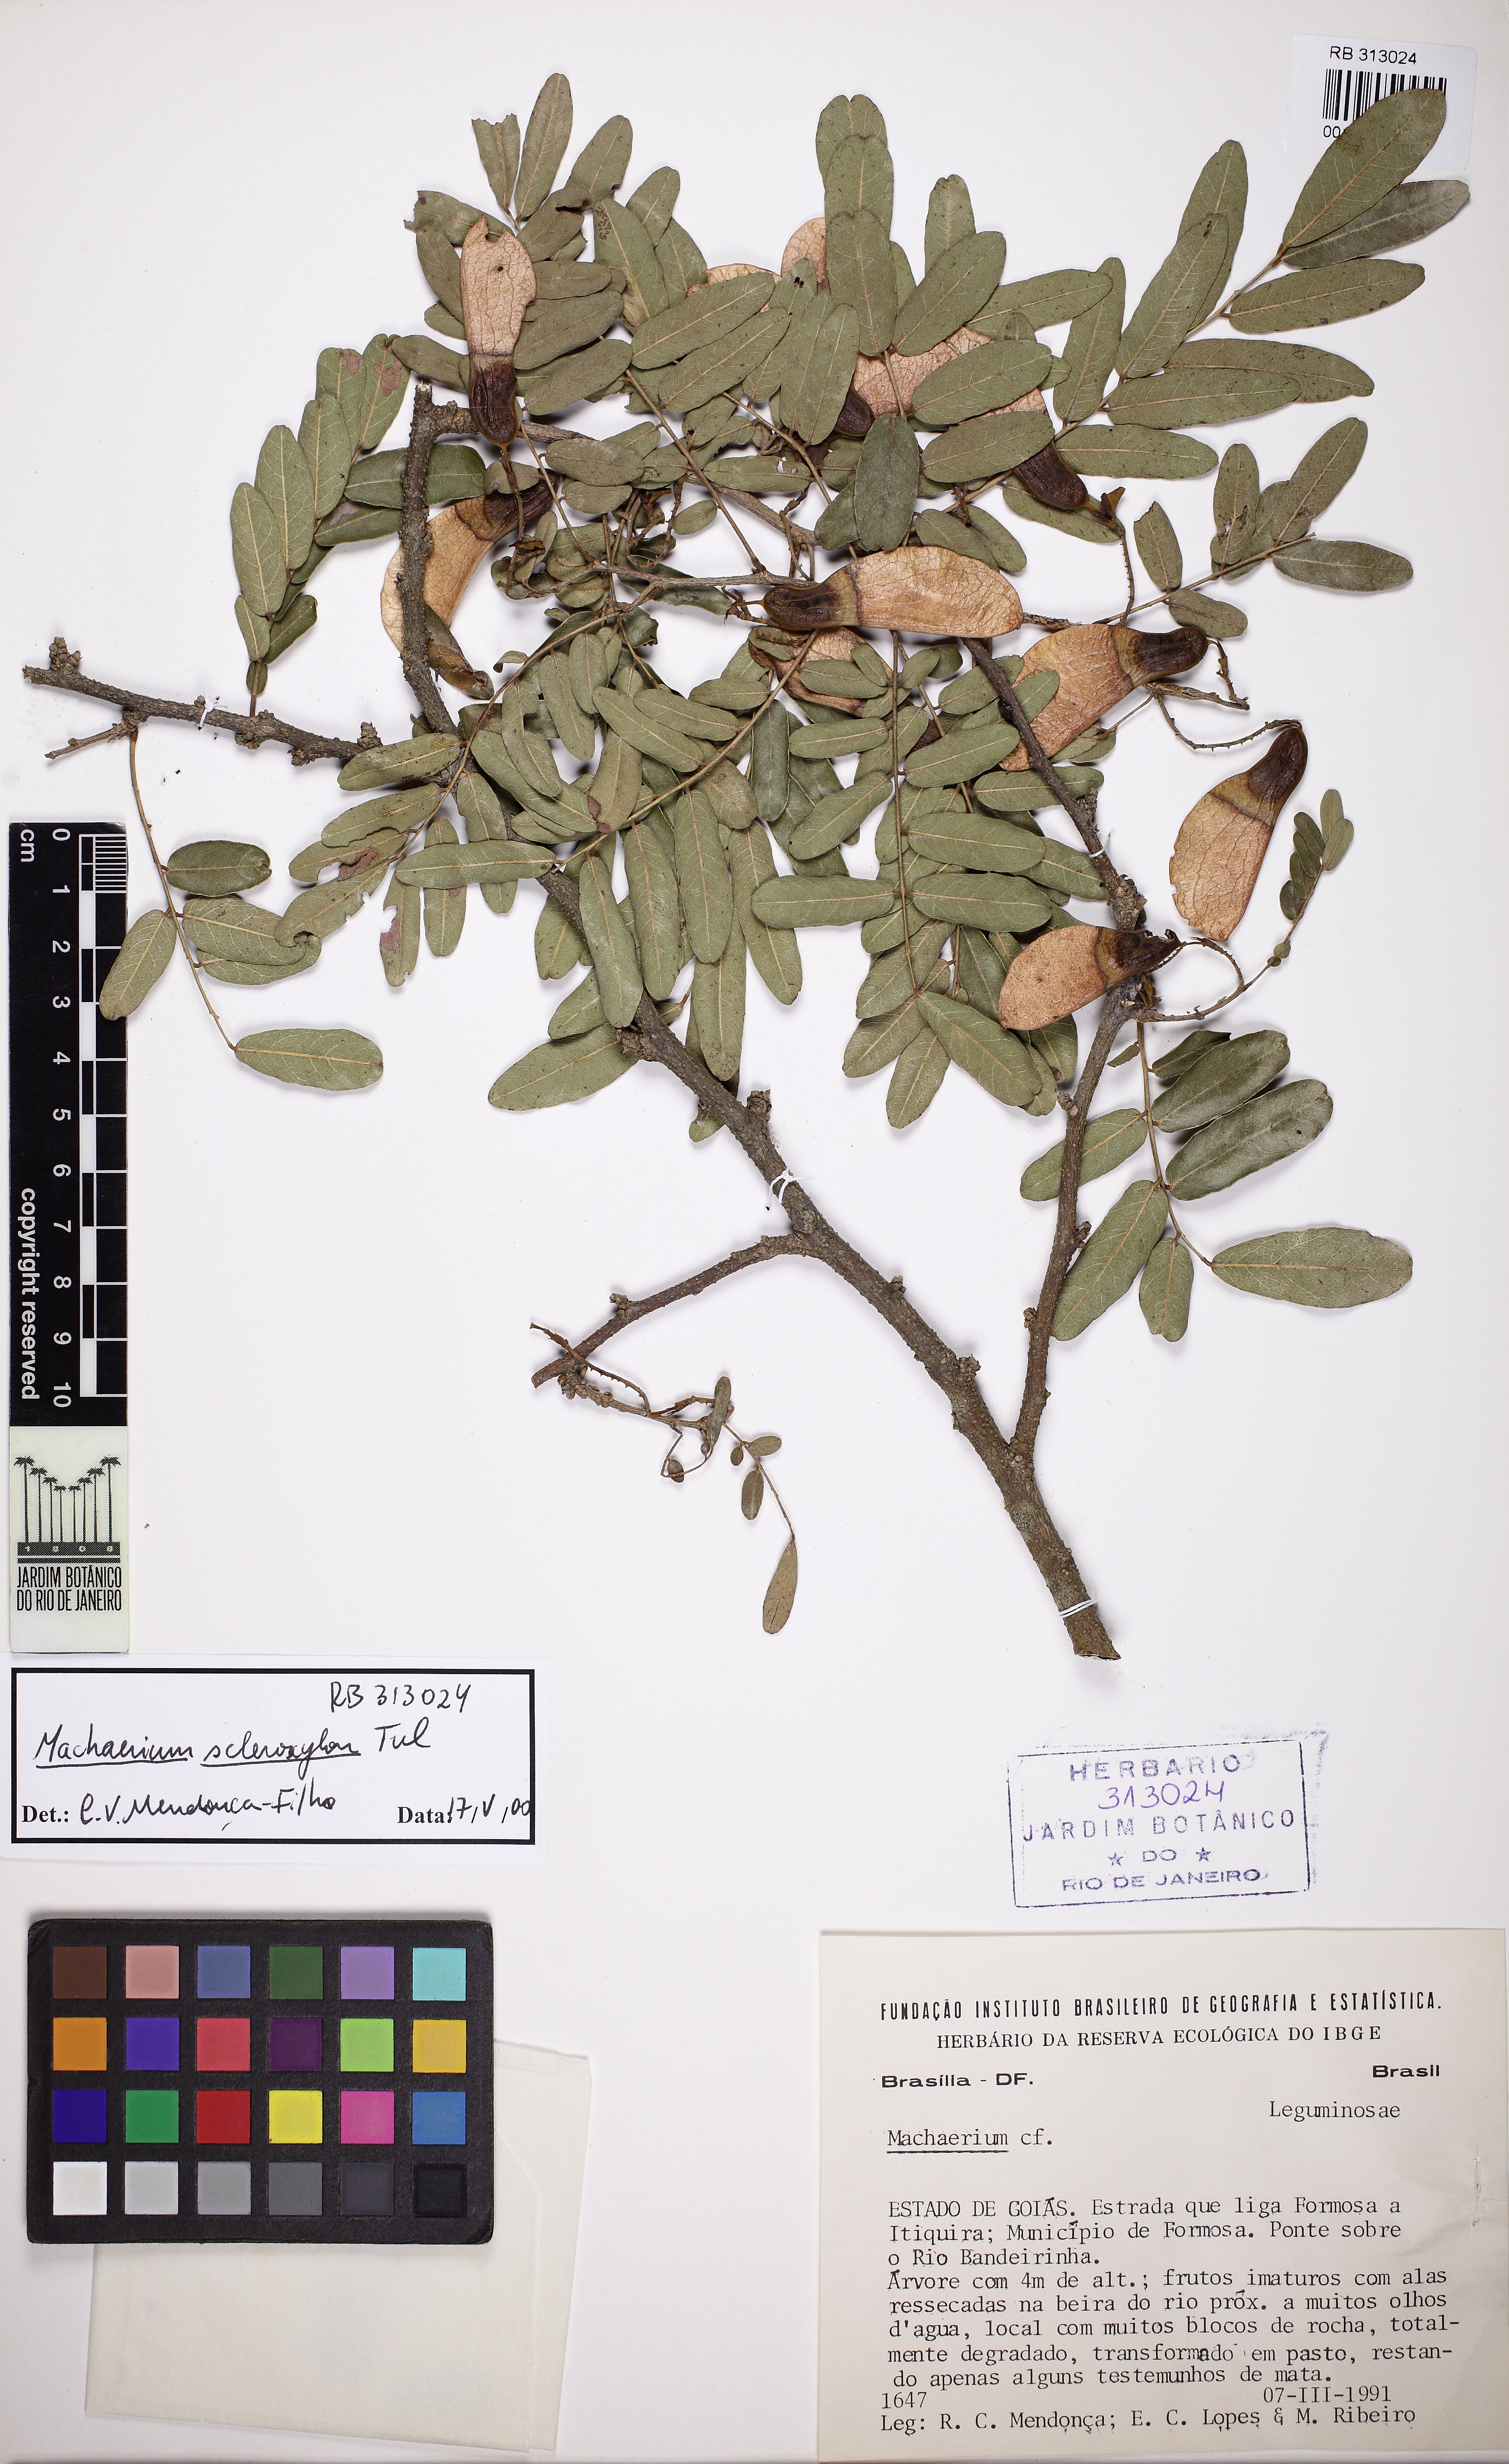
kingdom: Plantae
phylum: Tracheophyta
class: Magnoliopsida
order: Fabales
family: Fabaceae
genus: Machaerium
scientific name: Machaerium scleroxylon
